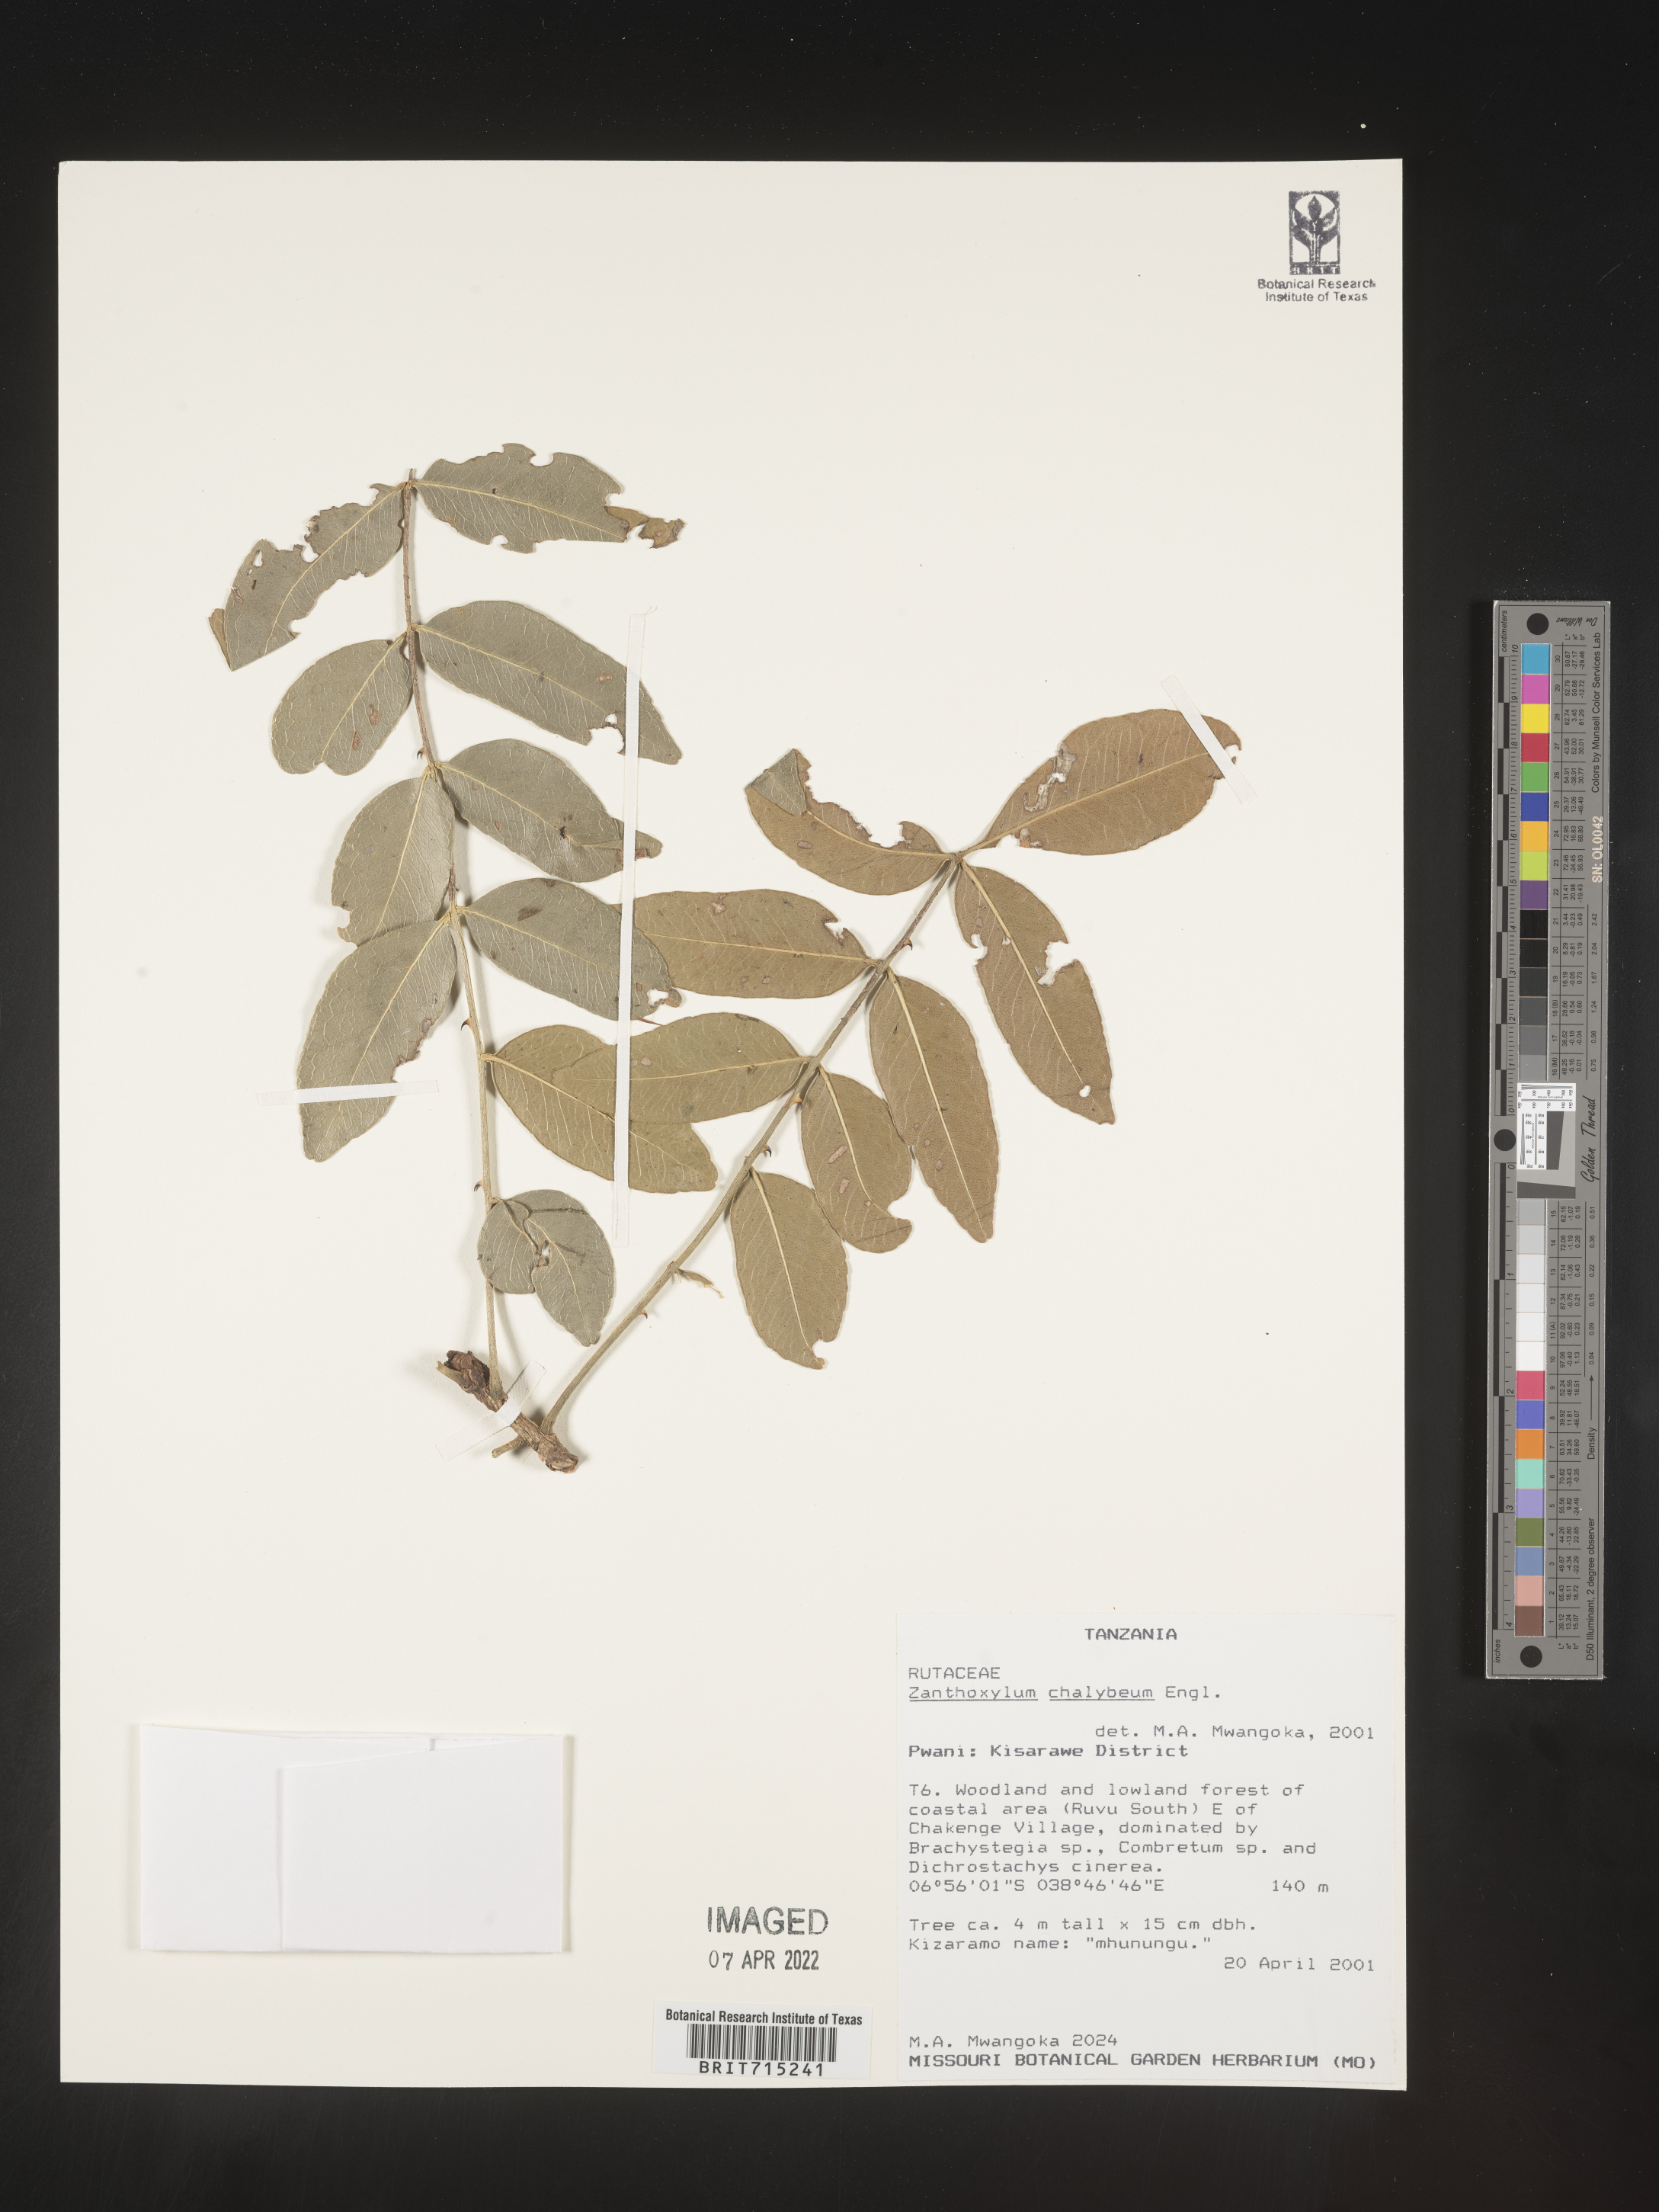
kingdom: Plantae
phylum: Tracheophyta
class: Magnoliopsida
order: Sapindales
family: Rutaceae
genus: Zanthoxylum
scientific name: Zanthoxylum
